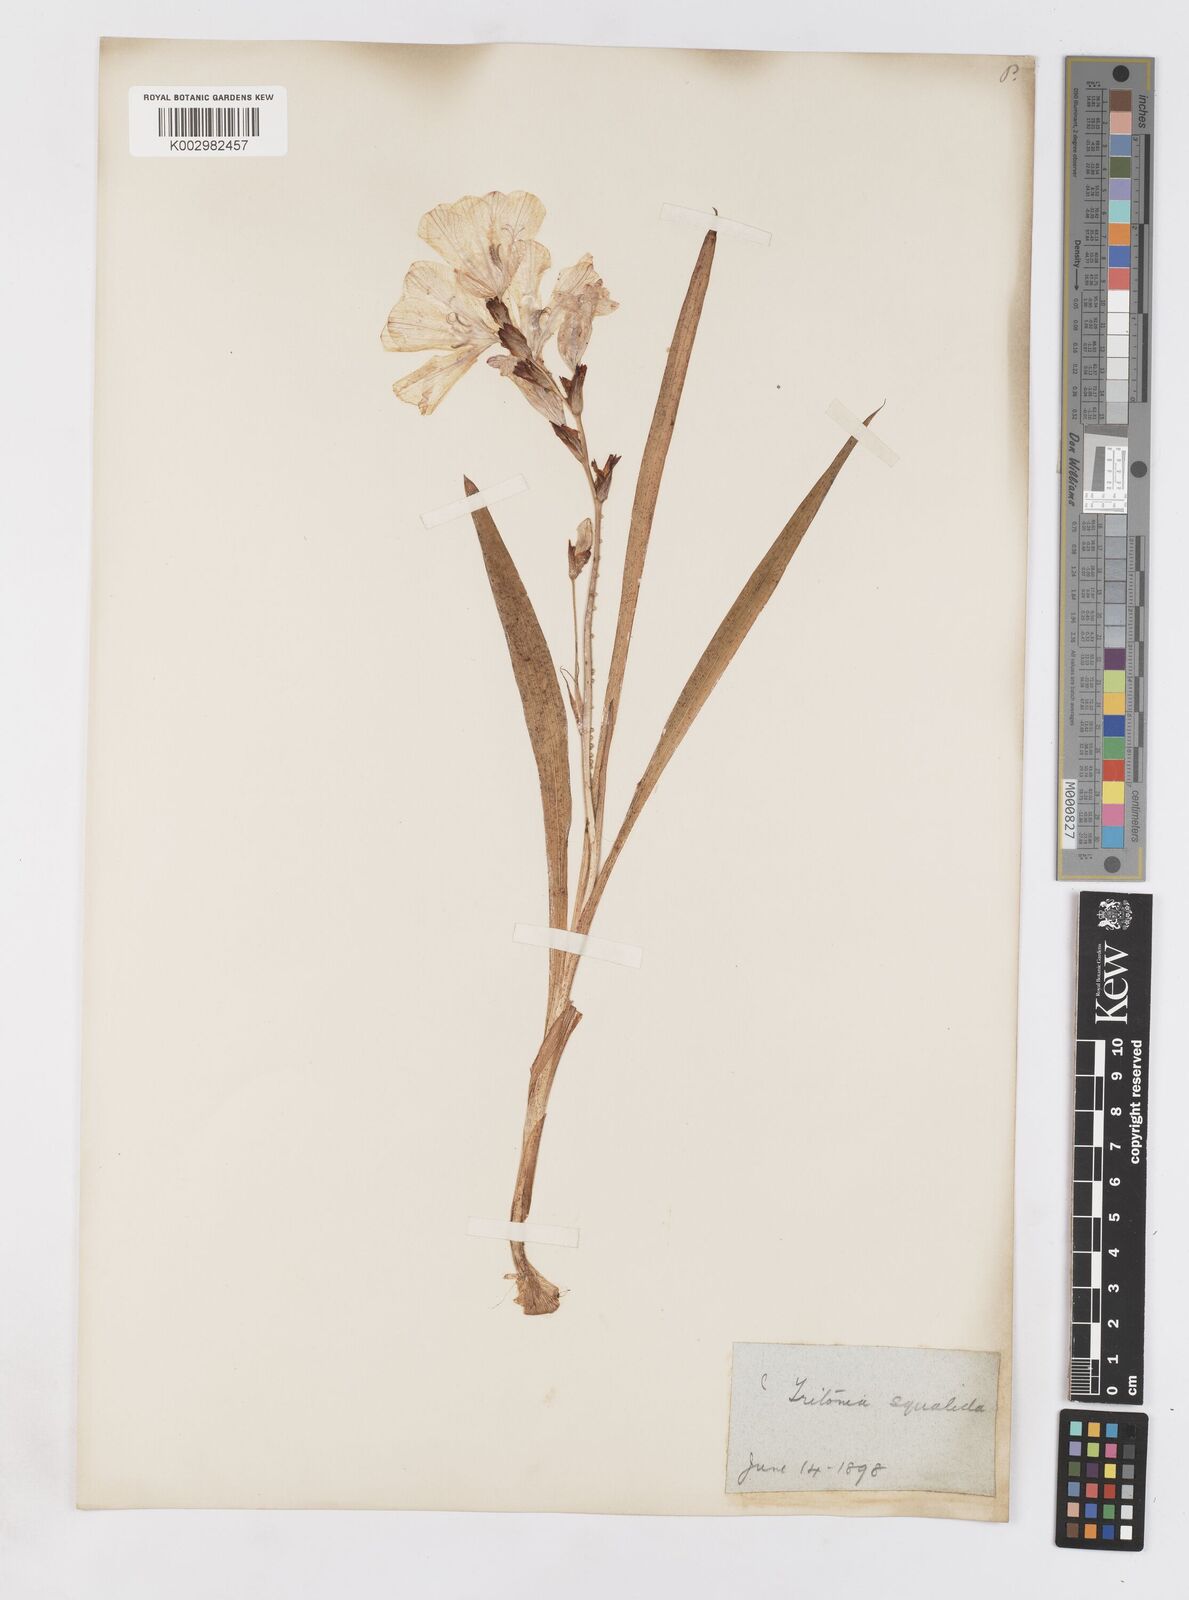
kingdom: Plantae
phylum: Tracheophyta
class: Liliopsida
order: Asparagales
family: Iridaceae
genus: Tritonia
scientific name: Tritonia squalida
